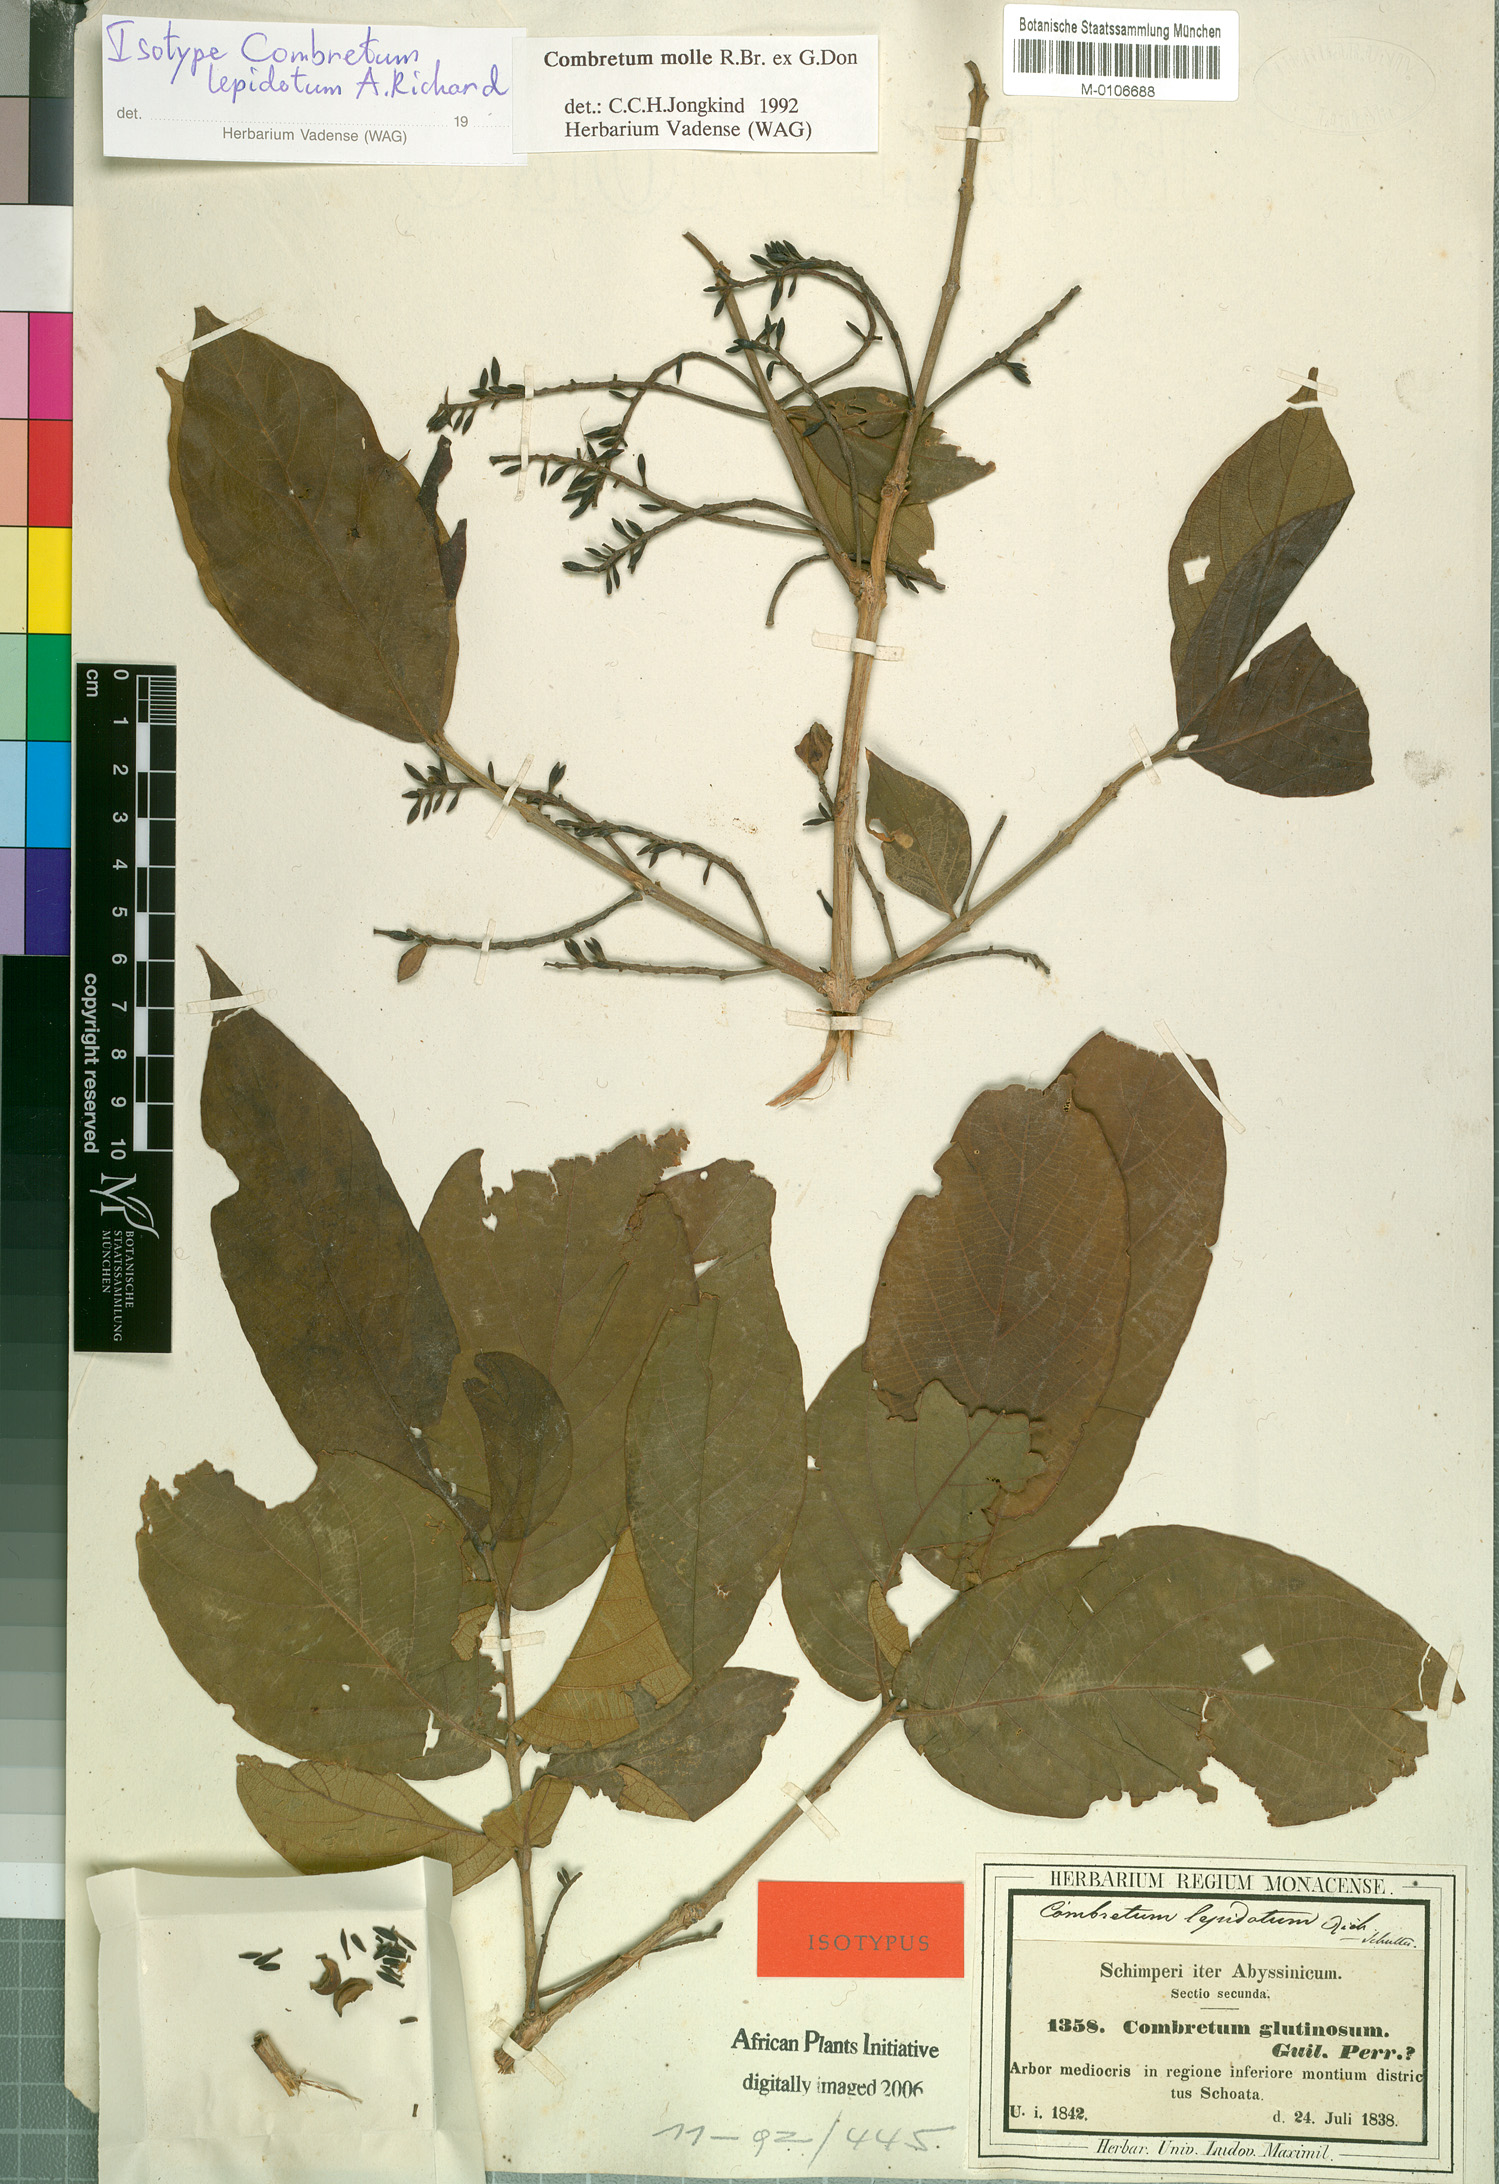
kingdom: Plantae
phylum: Tracheophyta
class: Magnoliopsida
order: Myrtales
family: Combretaceae
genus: Combretum
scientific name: Combretum molle
